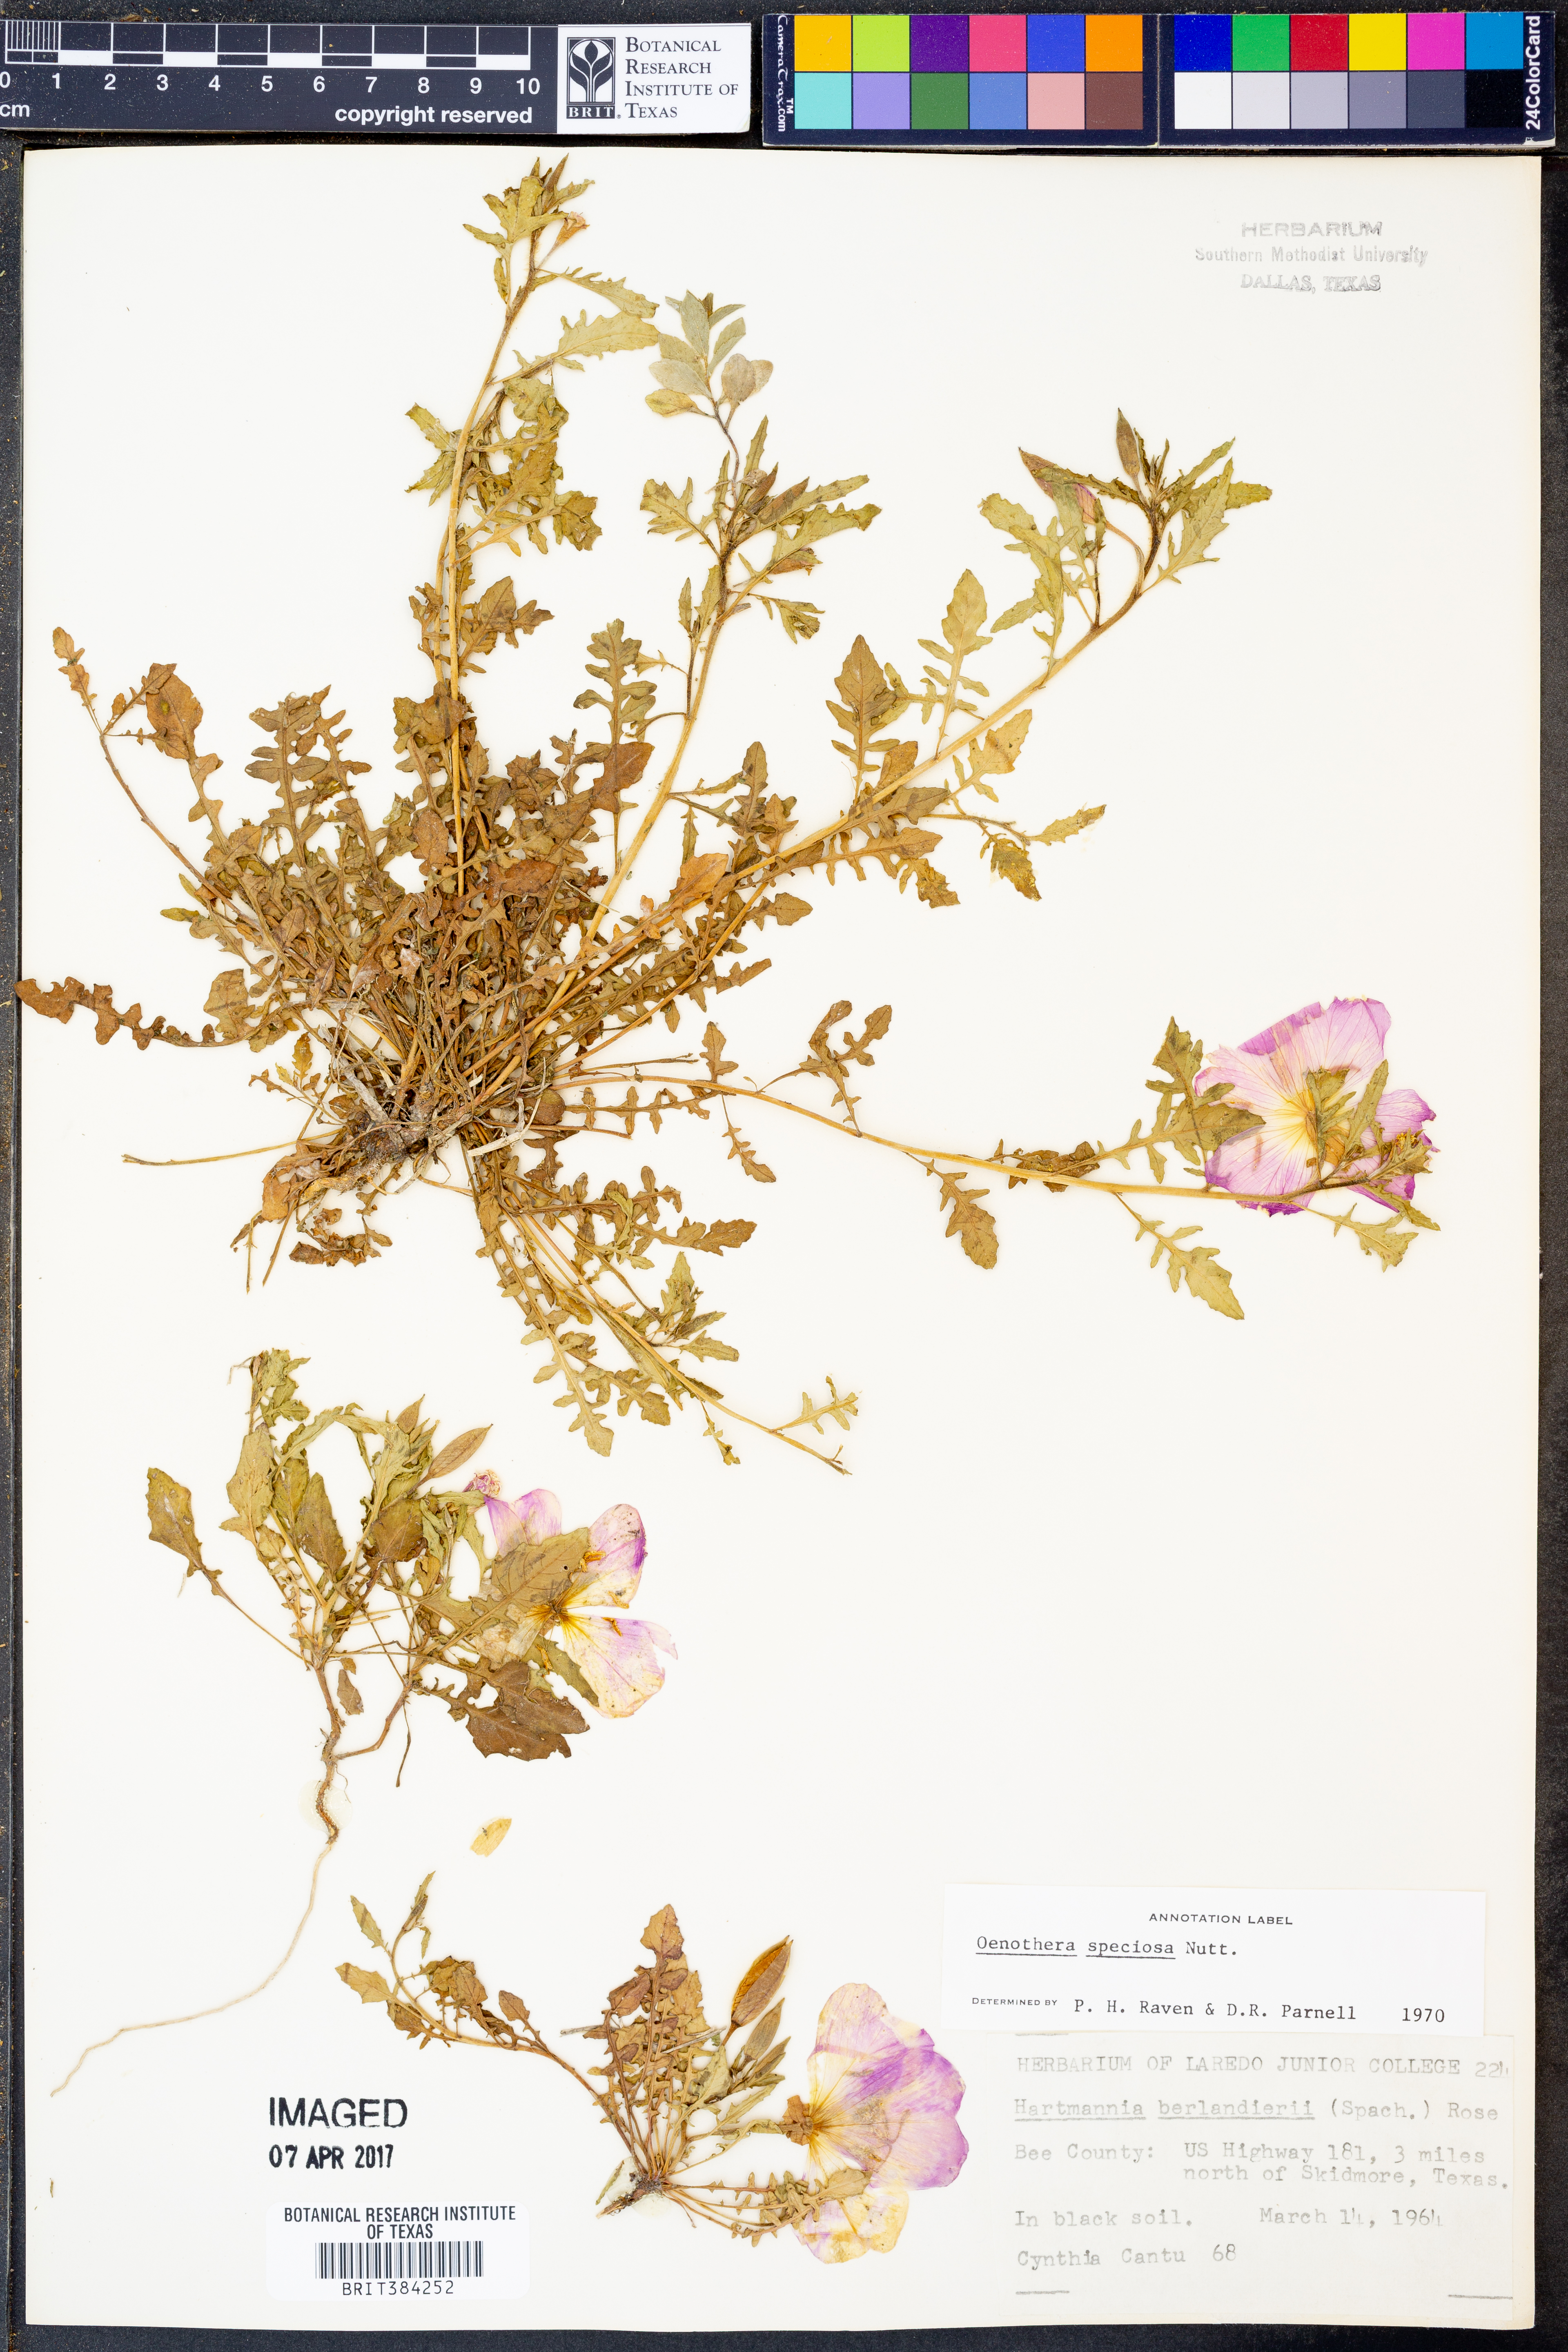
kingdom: Plantae
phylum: Tracheophyta
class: Magnoliopsida
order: Myrtales
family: Onagraceae
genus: Oenothera
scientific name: Oenothera speciosa
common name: White evening-primrose
